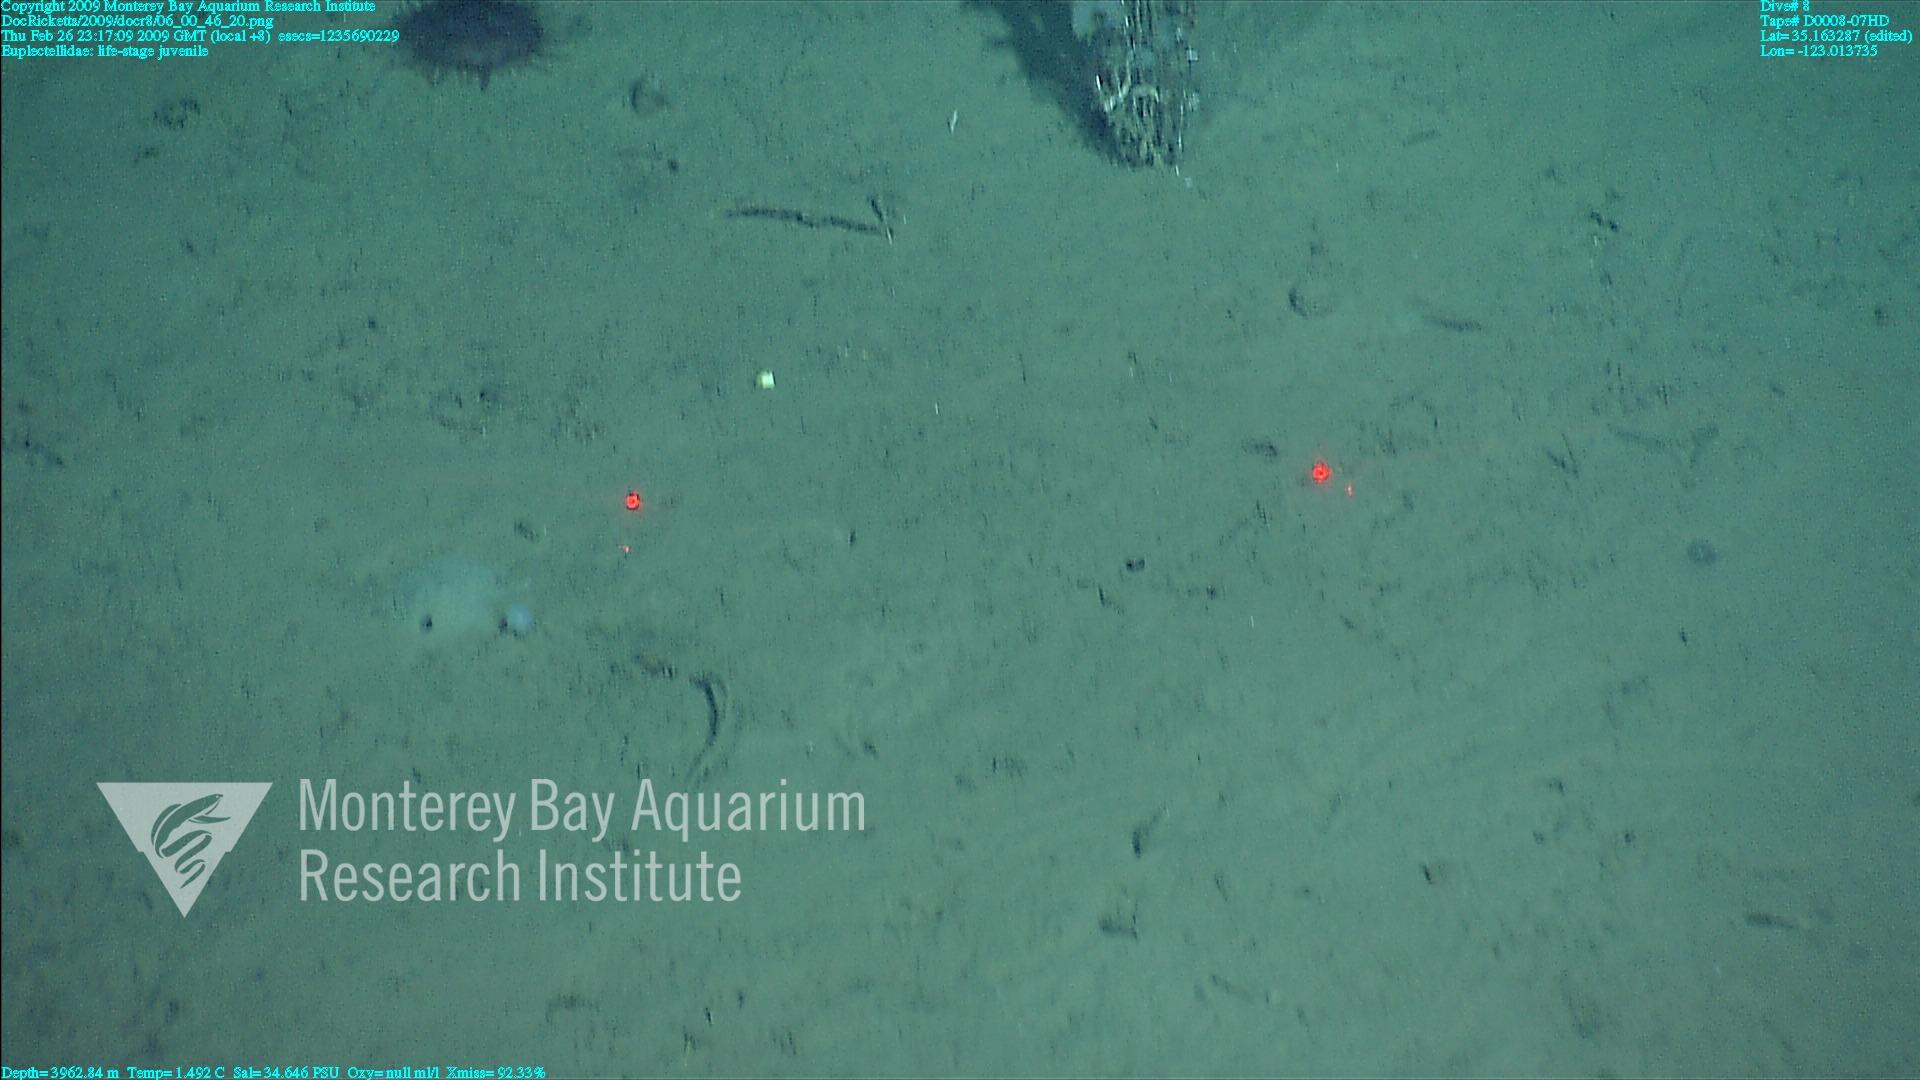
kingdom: Animalia
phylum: Porifera
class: Hexactinellida
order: Lyssacinosida
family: Euplectellidae
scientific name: Euplectellidae
